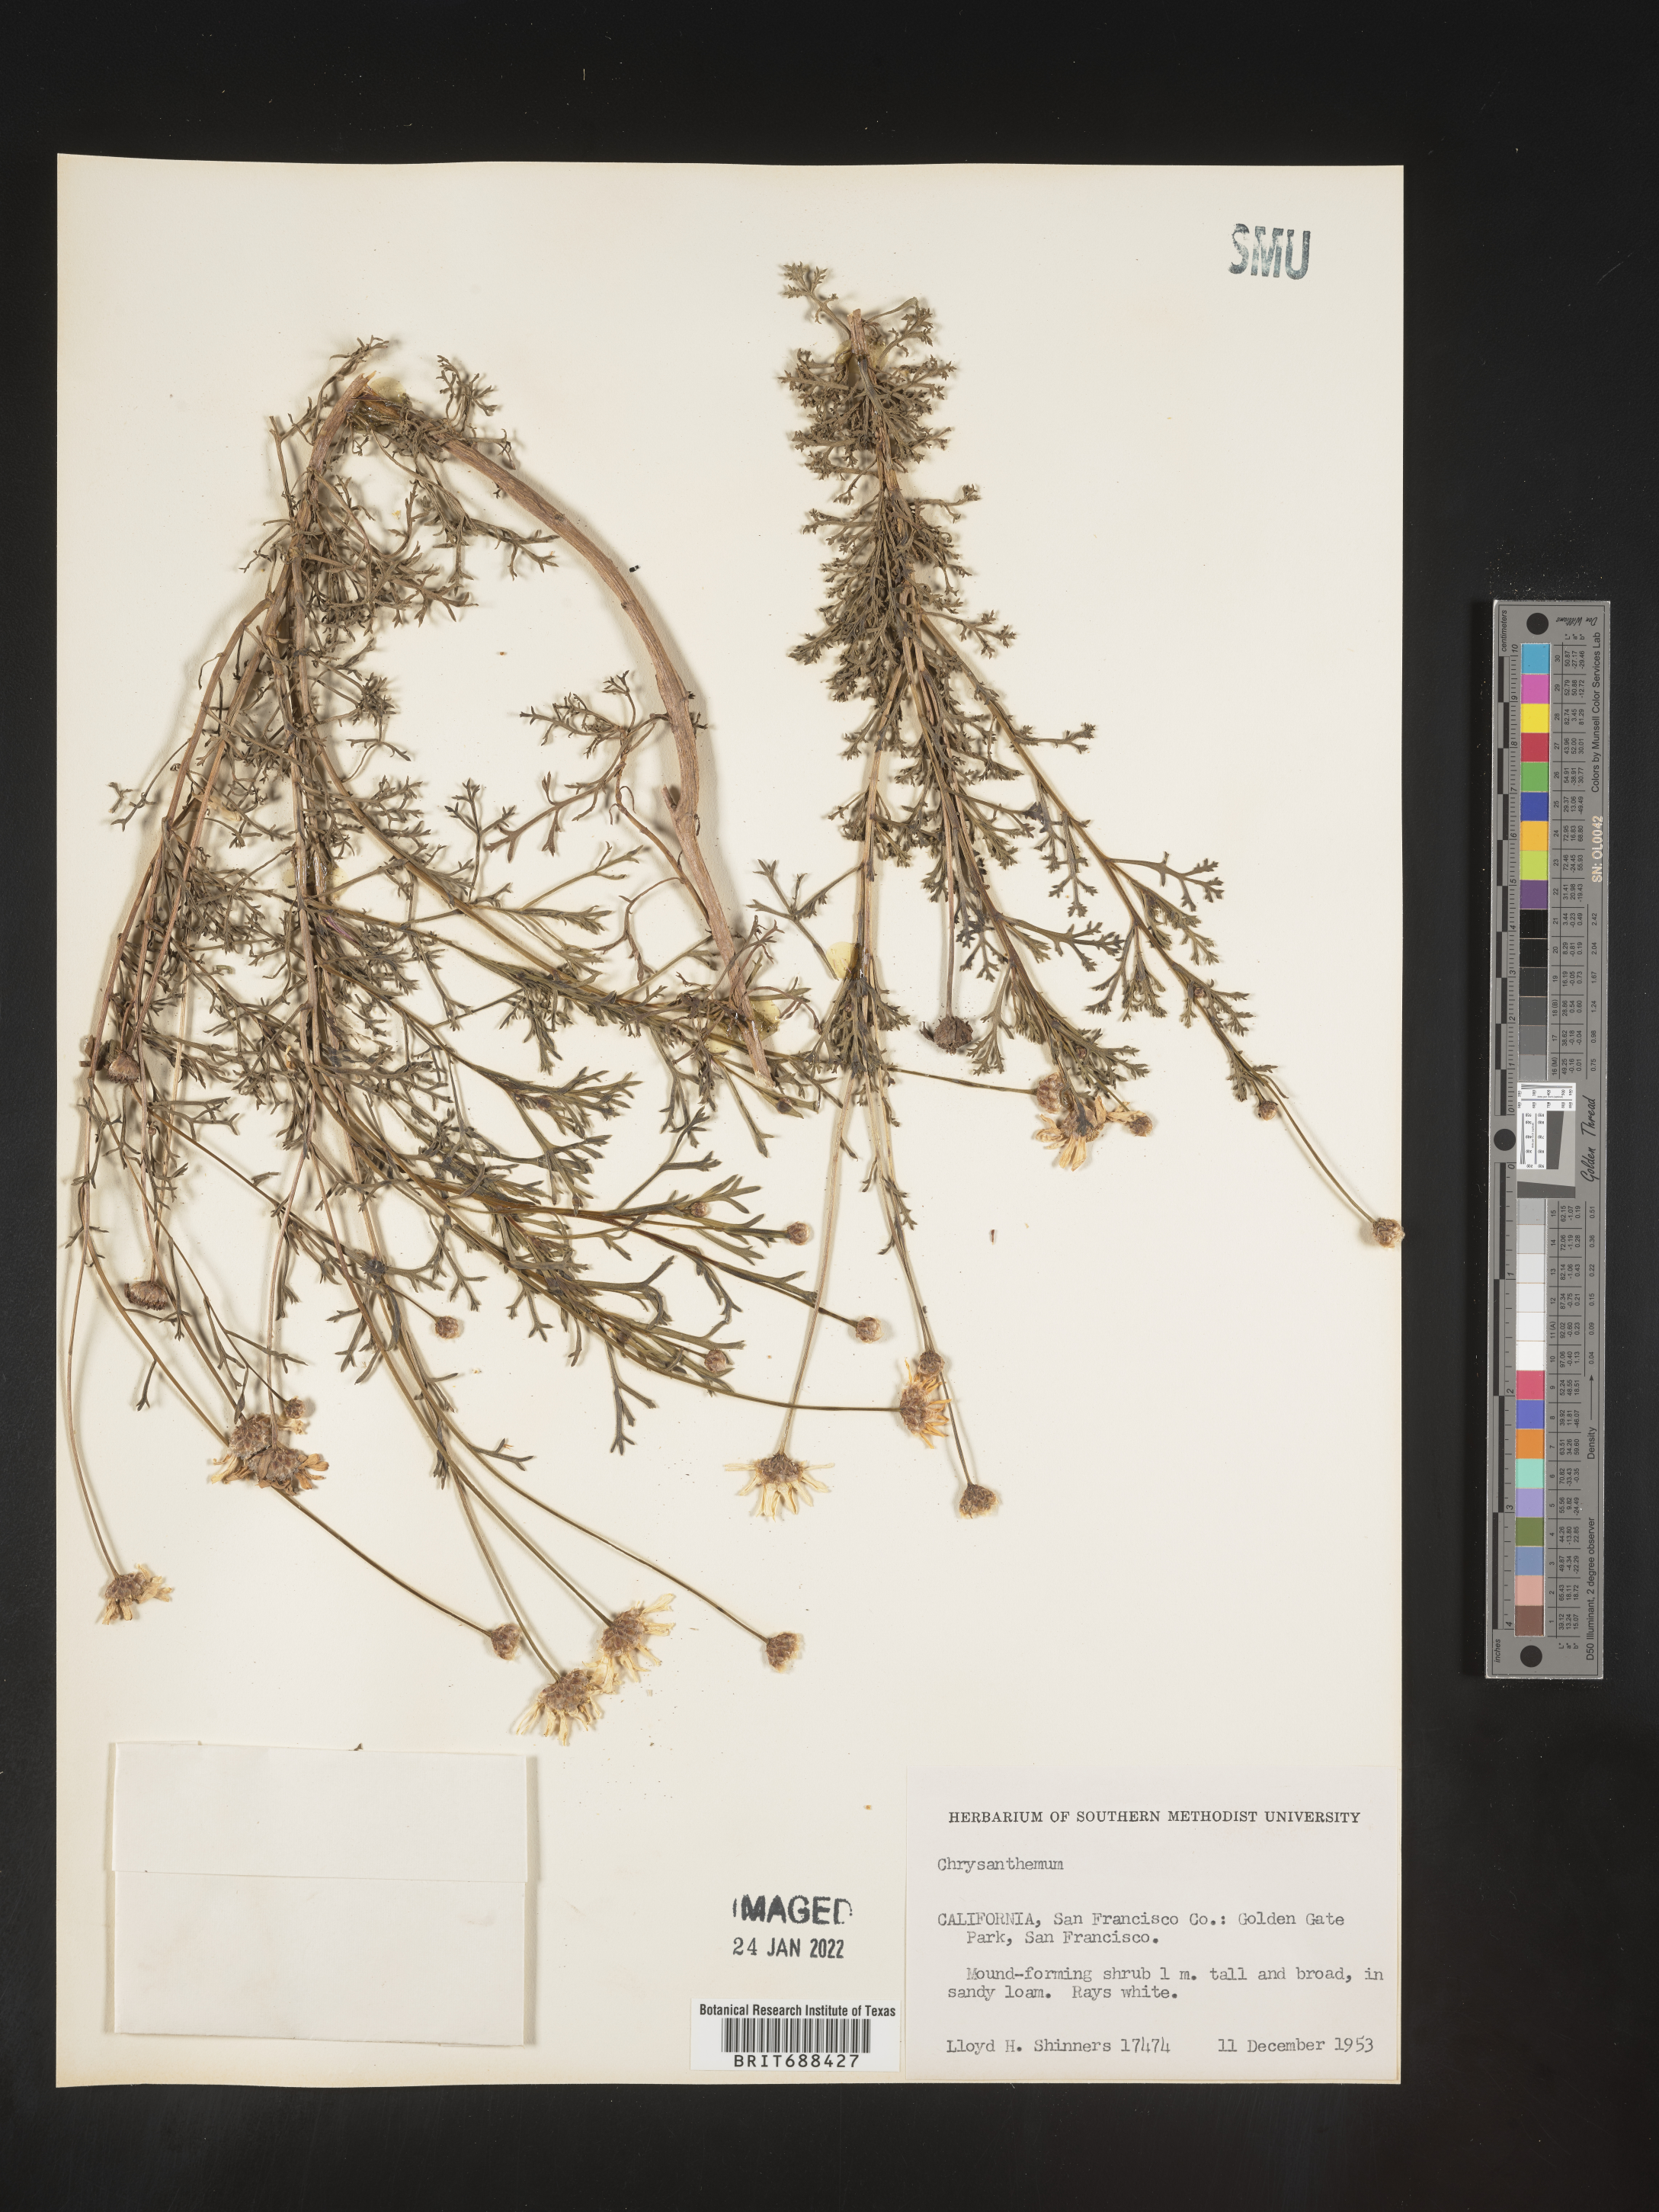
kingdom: Plantae
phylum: Tracheophyta
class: Magnoliopsida
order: Asterales
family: Asteraceae
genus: Chrysanthemum
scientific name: Chrysanthemum
